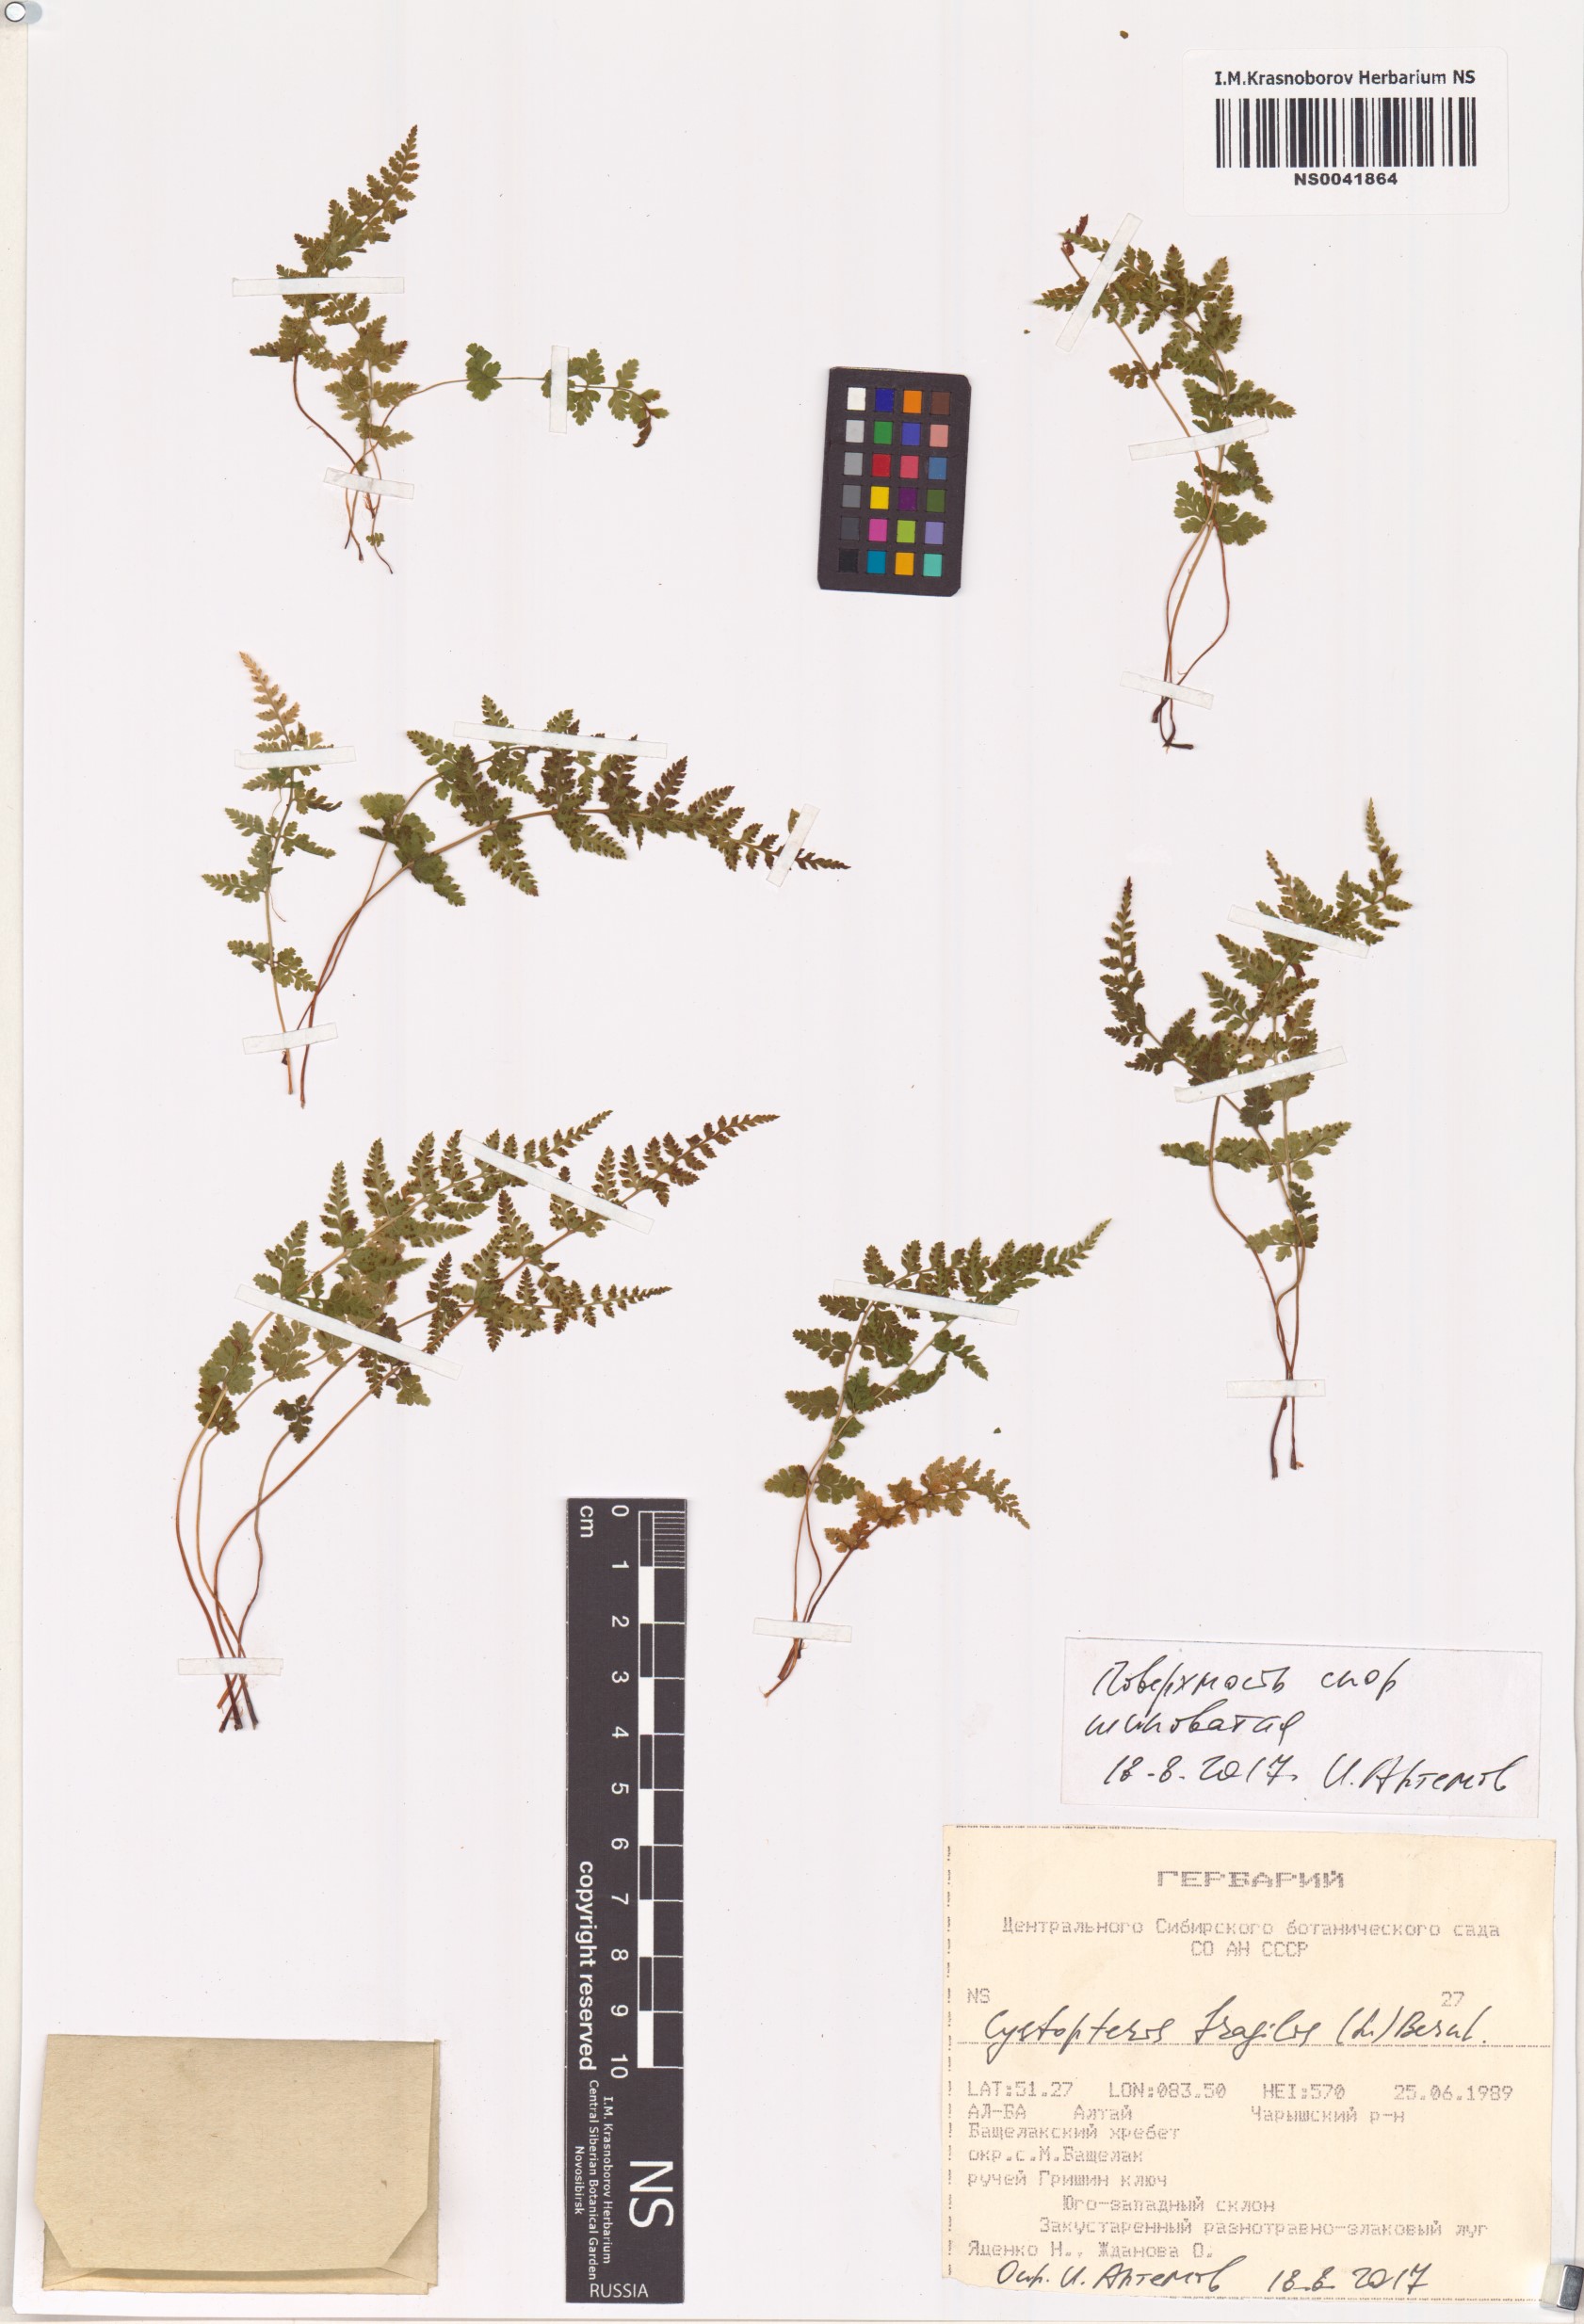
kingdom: Plantae
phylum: Tracheophyta
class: Polypodiopsida
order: Polypodiales
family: Cystopteridaceae
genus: Cystopteris
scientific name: Cystopteris fragilis
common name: Brittle bladder fern
